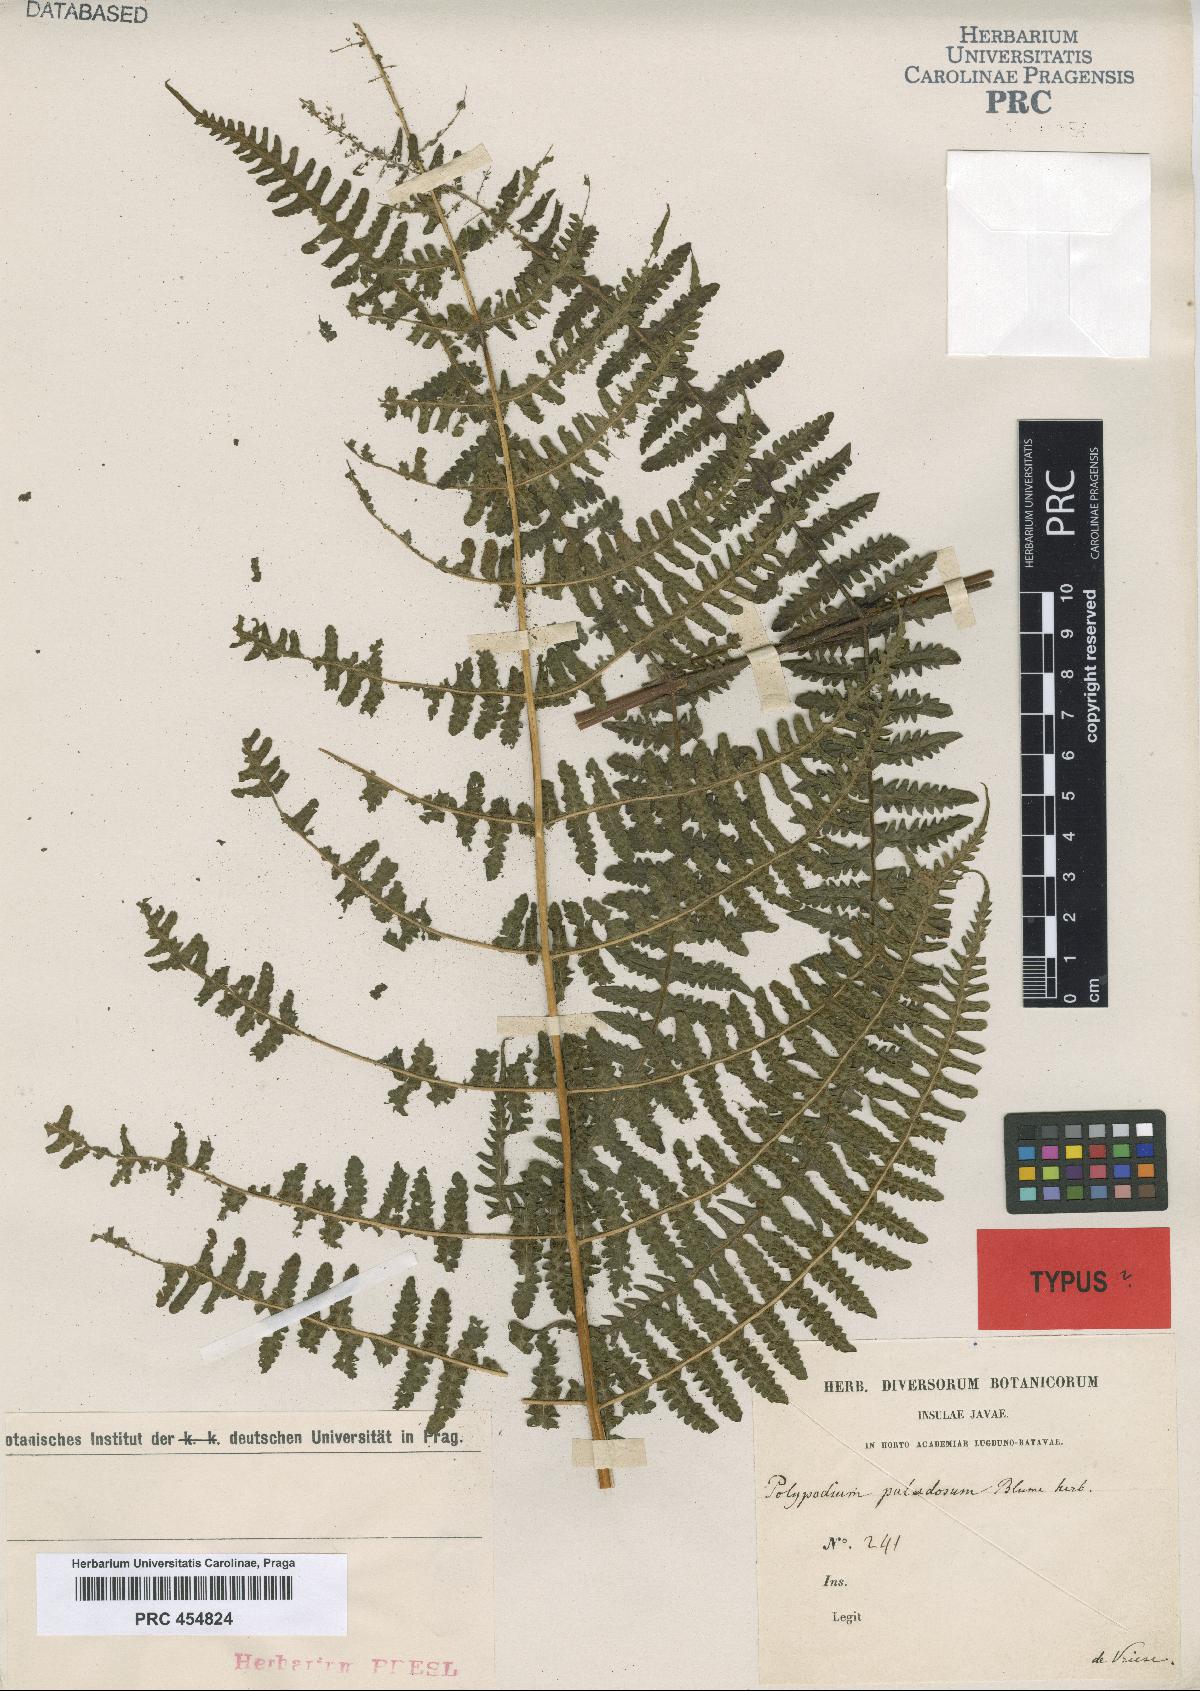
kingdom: Plantae
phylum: Tracheophyta
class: Polypodiopsida
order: Polypodiales
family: Thelypteridaceae
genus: Pseudophegopteris
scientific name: Pseudophegopteris paludosa
